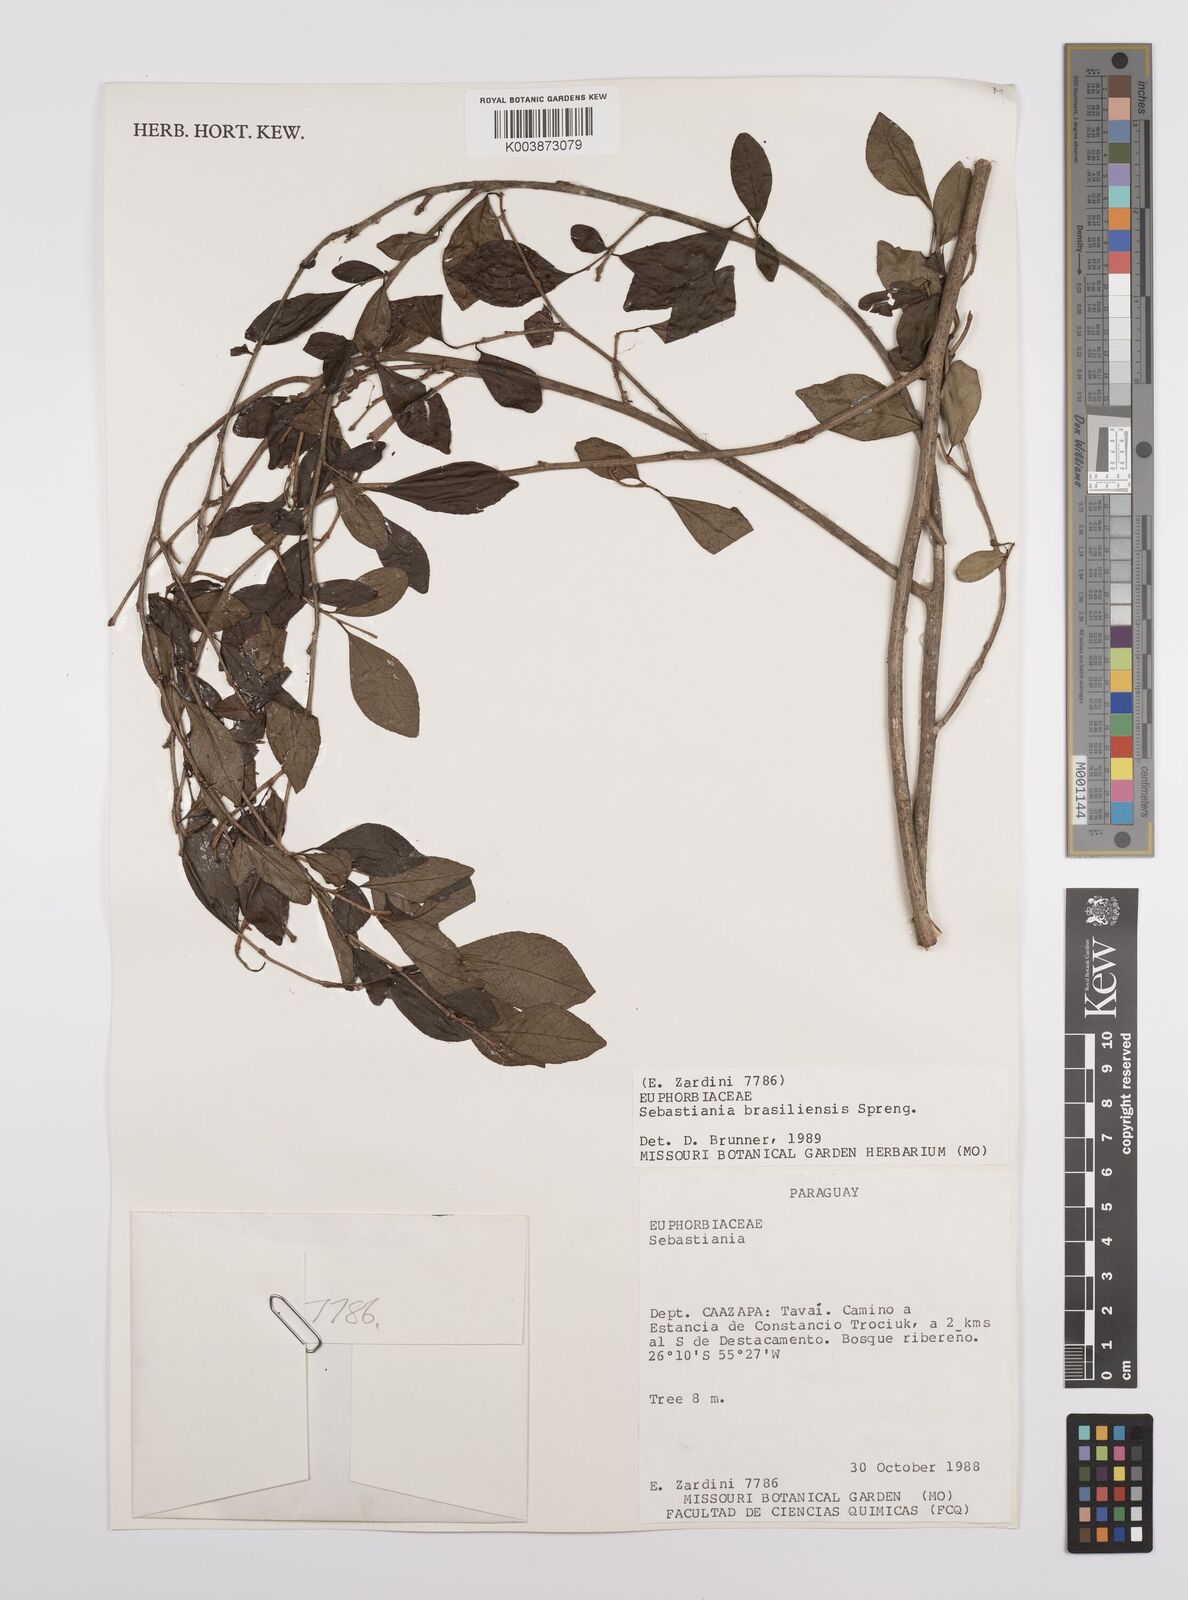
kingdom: Plantae
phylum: Tracheophyta
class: Magnoliopsida
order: Malpighiales
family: Euphorbiaceae
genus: Sebastiania
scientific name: Sebastiania brasiliensis
